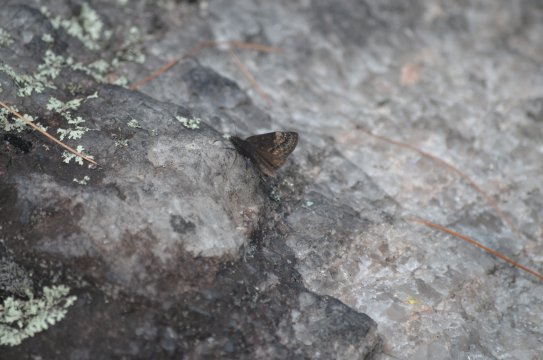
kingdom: Animalia
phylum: Arthropoda
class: Insecta
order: Lepidoptera
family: Hesperiidae
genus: Gesta
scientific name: Gesta
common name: Wild Indigo Duskywing
